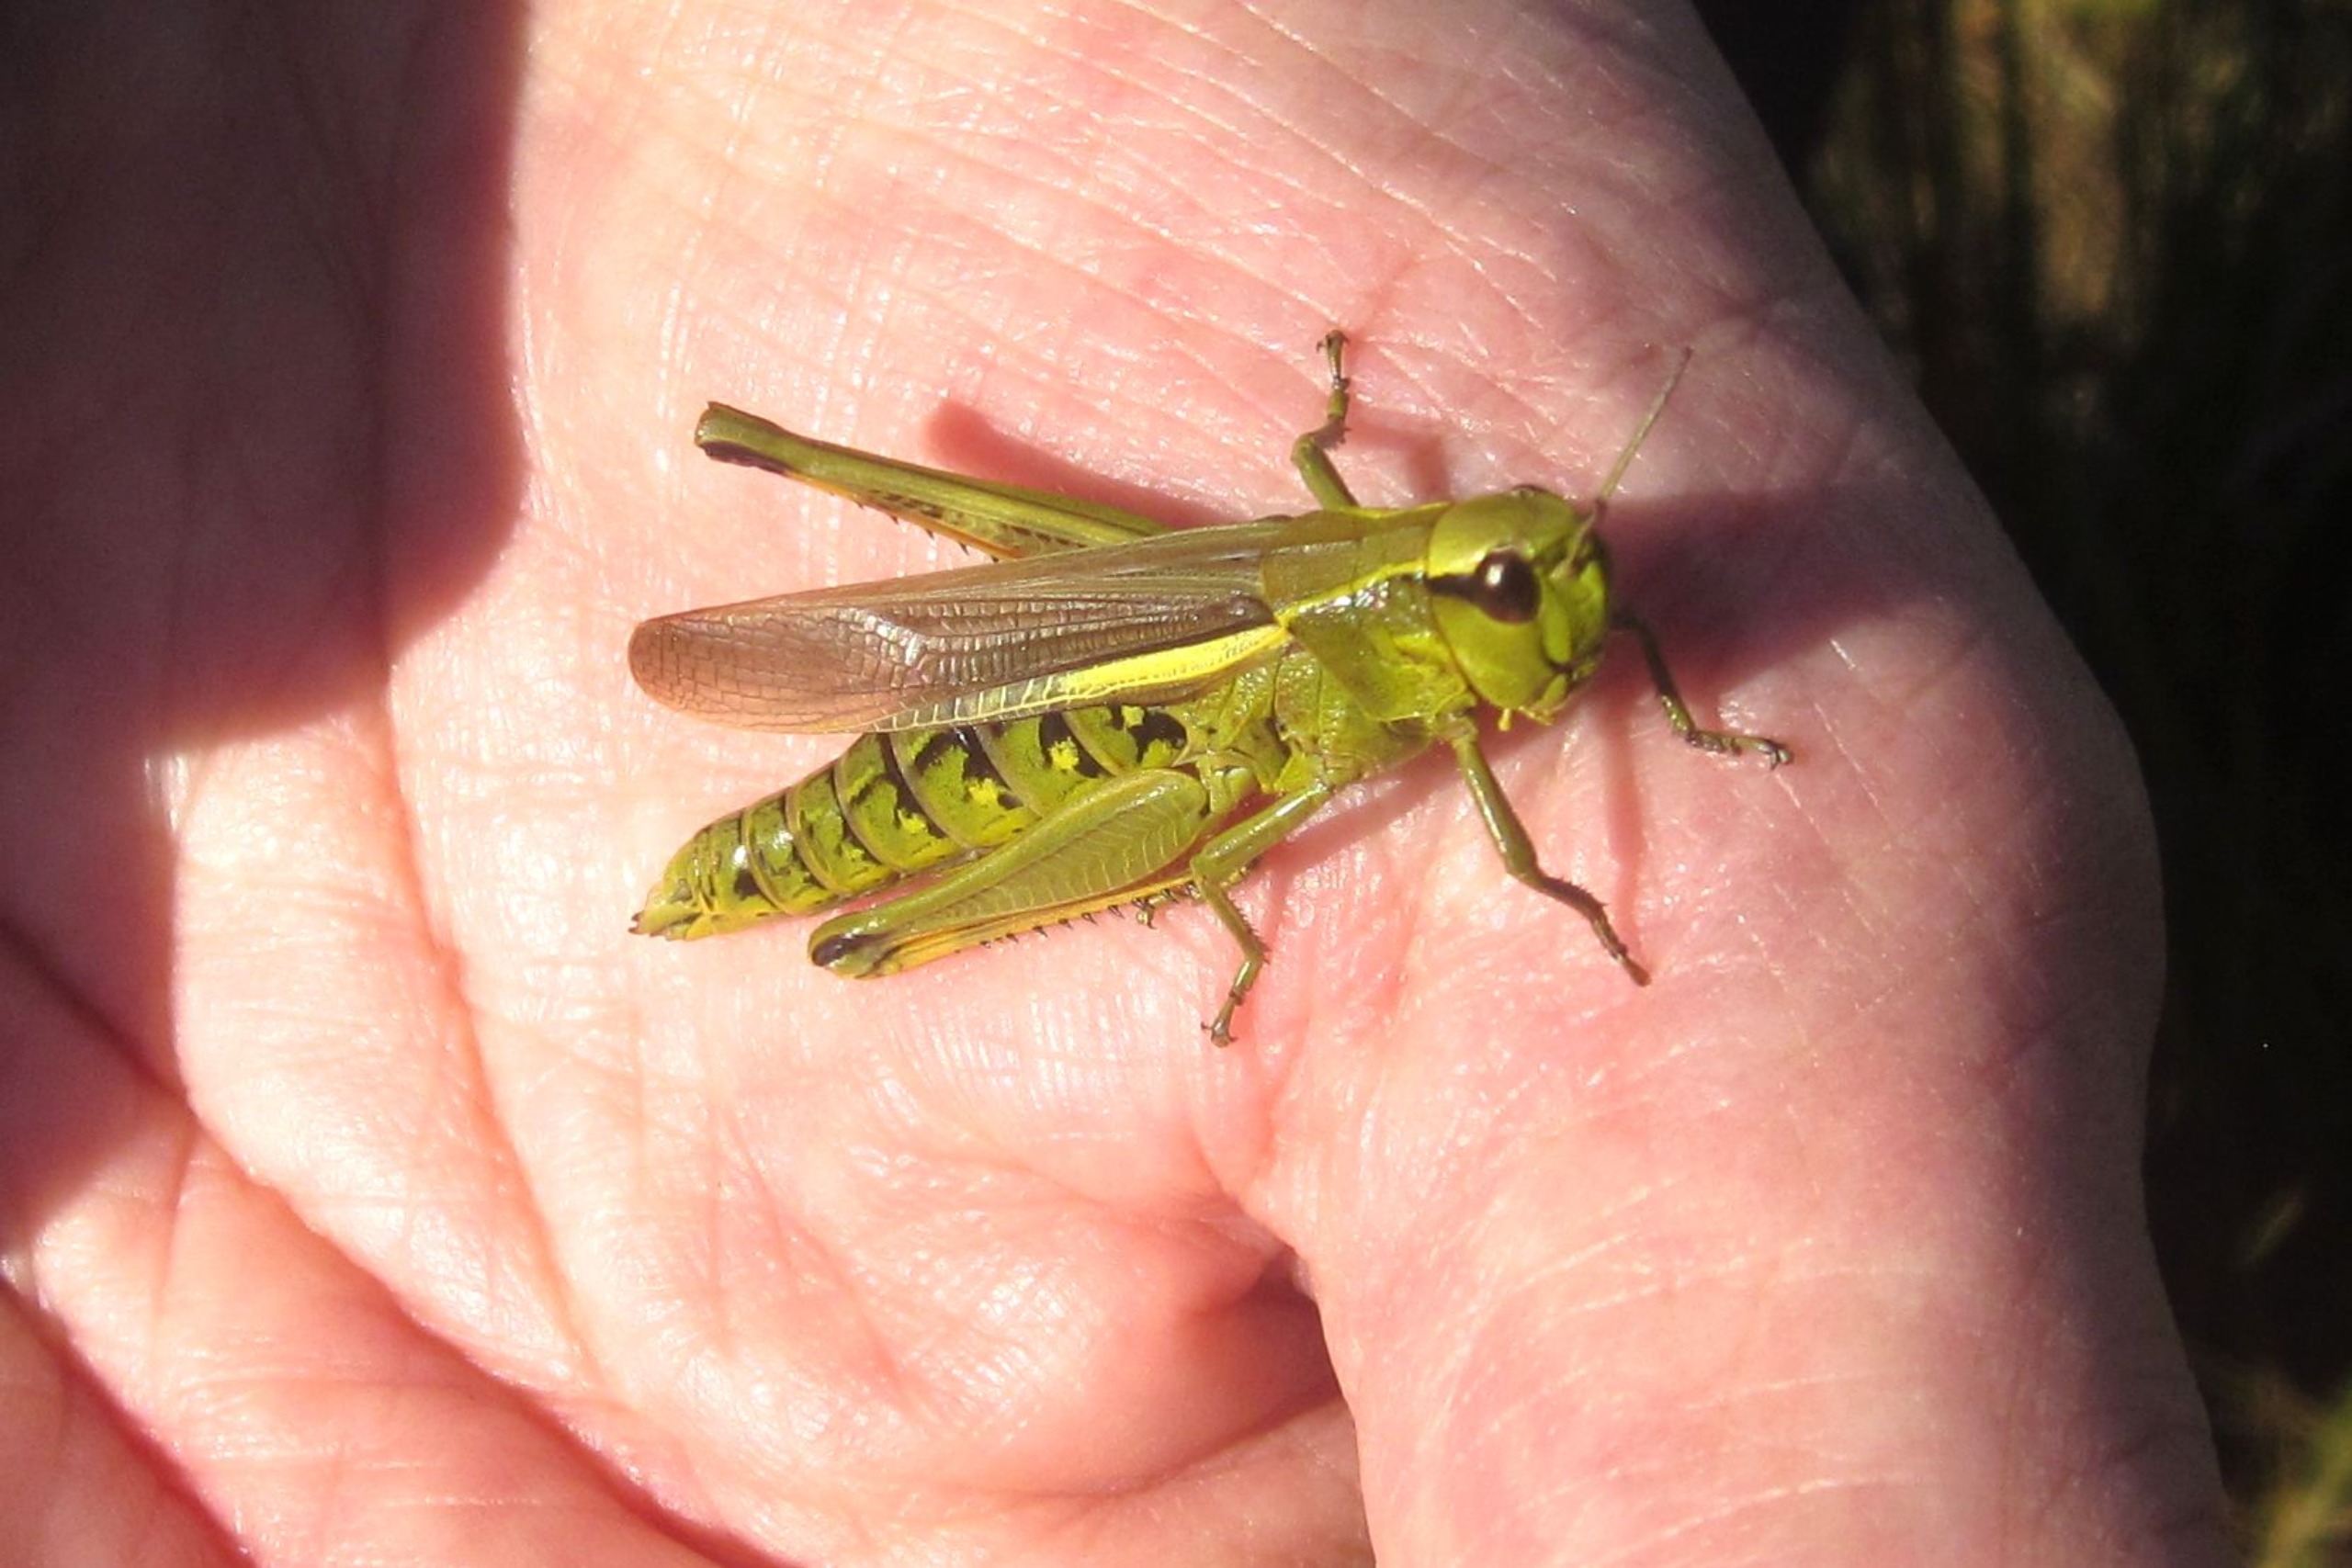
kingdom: Animalia
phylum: Arthropoda
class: Insecta
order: Orthoptera
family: Acrididae
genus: Stethophyma
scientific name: Stethophyma grossum
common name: Sumpgræshoppe
